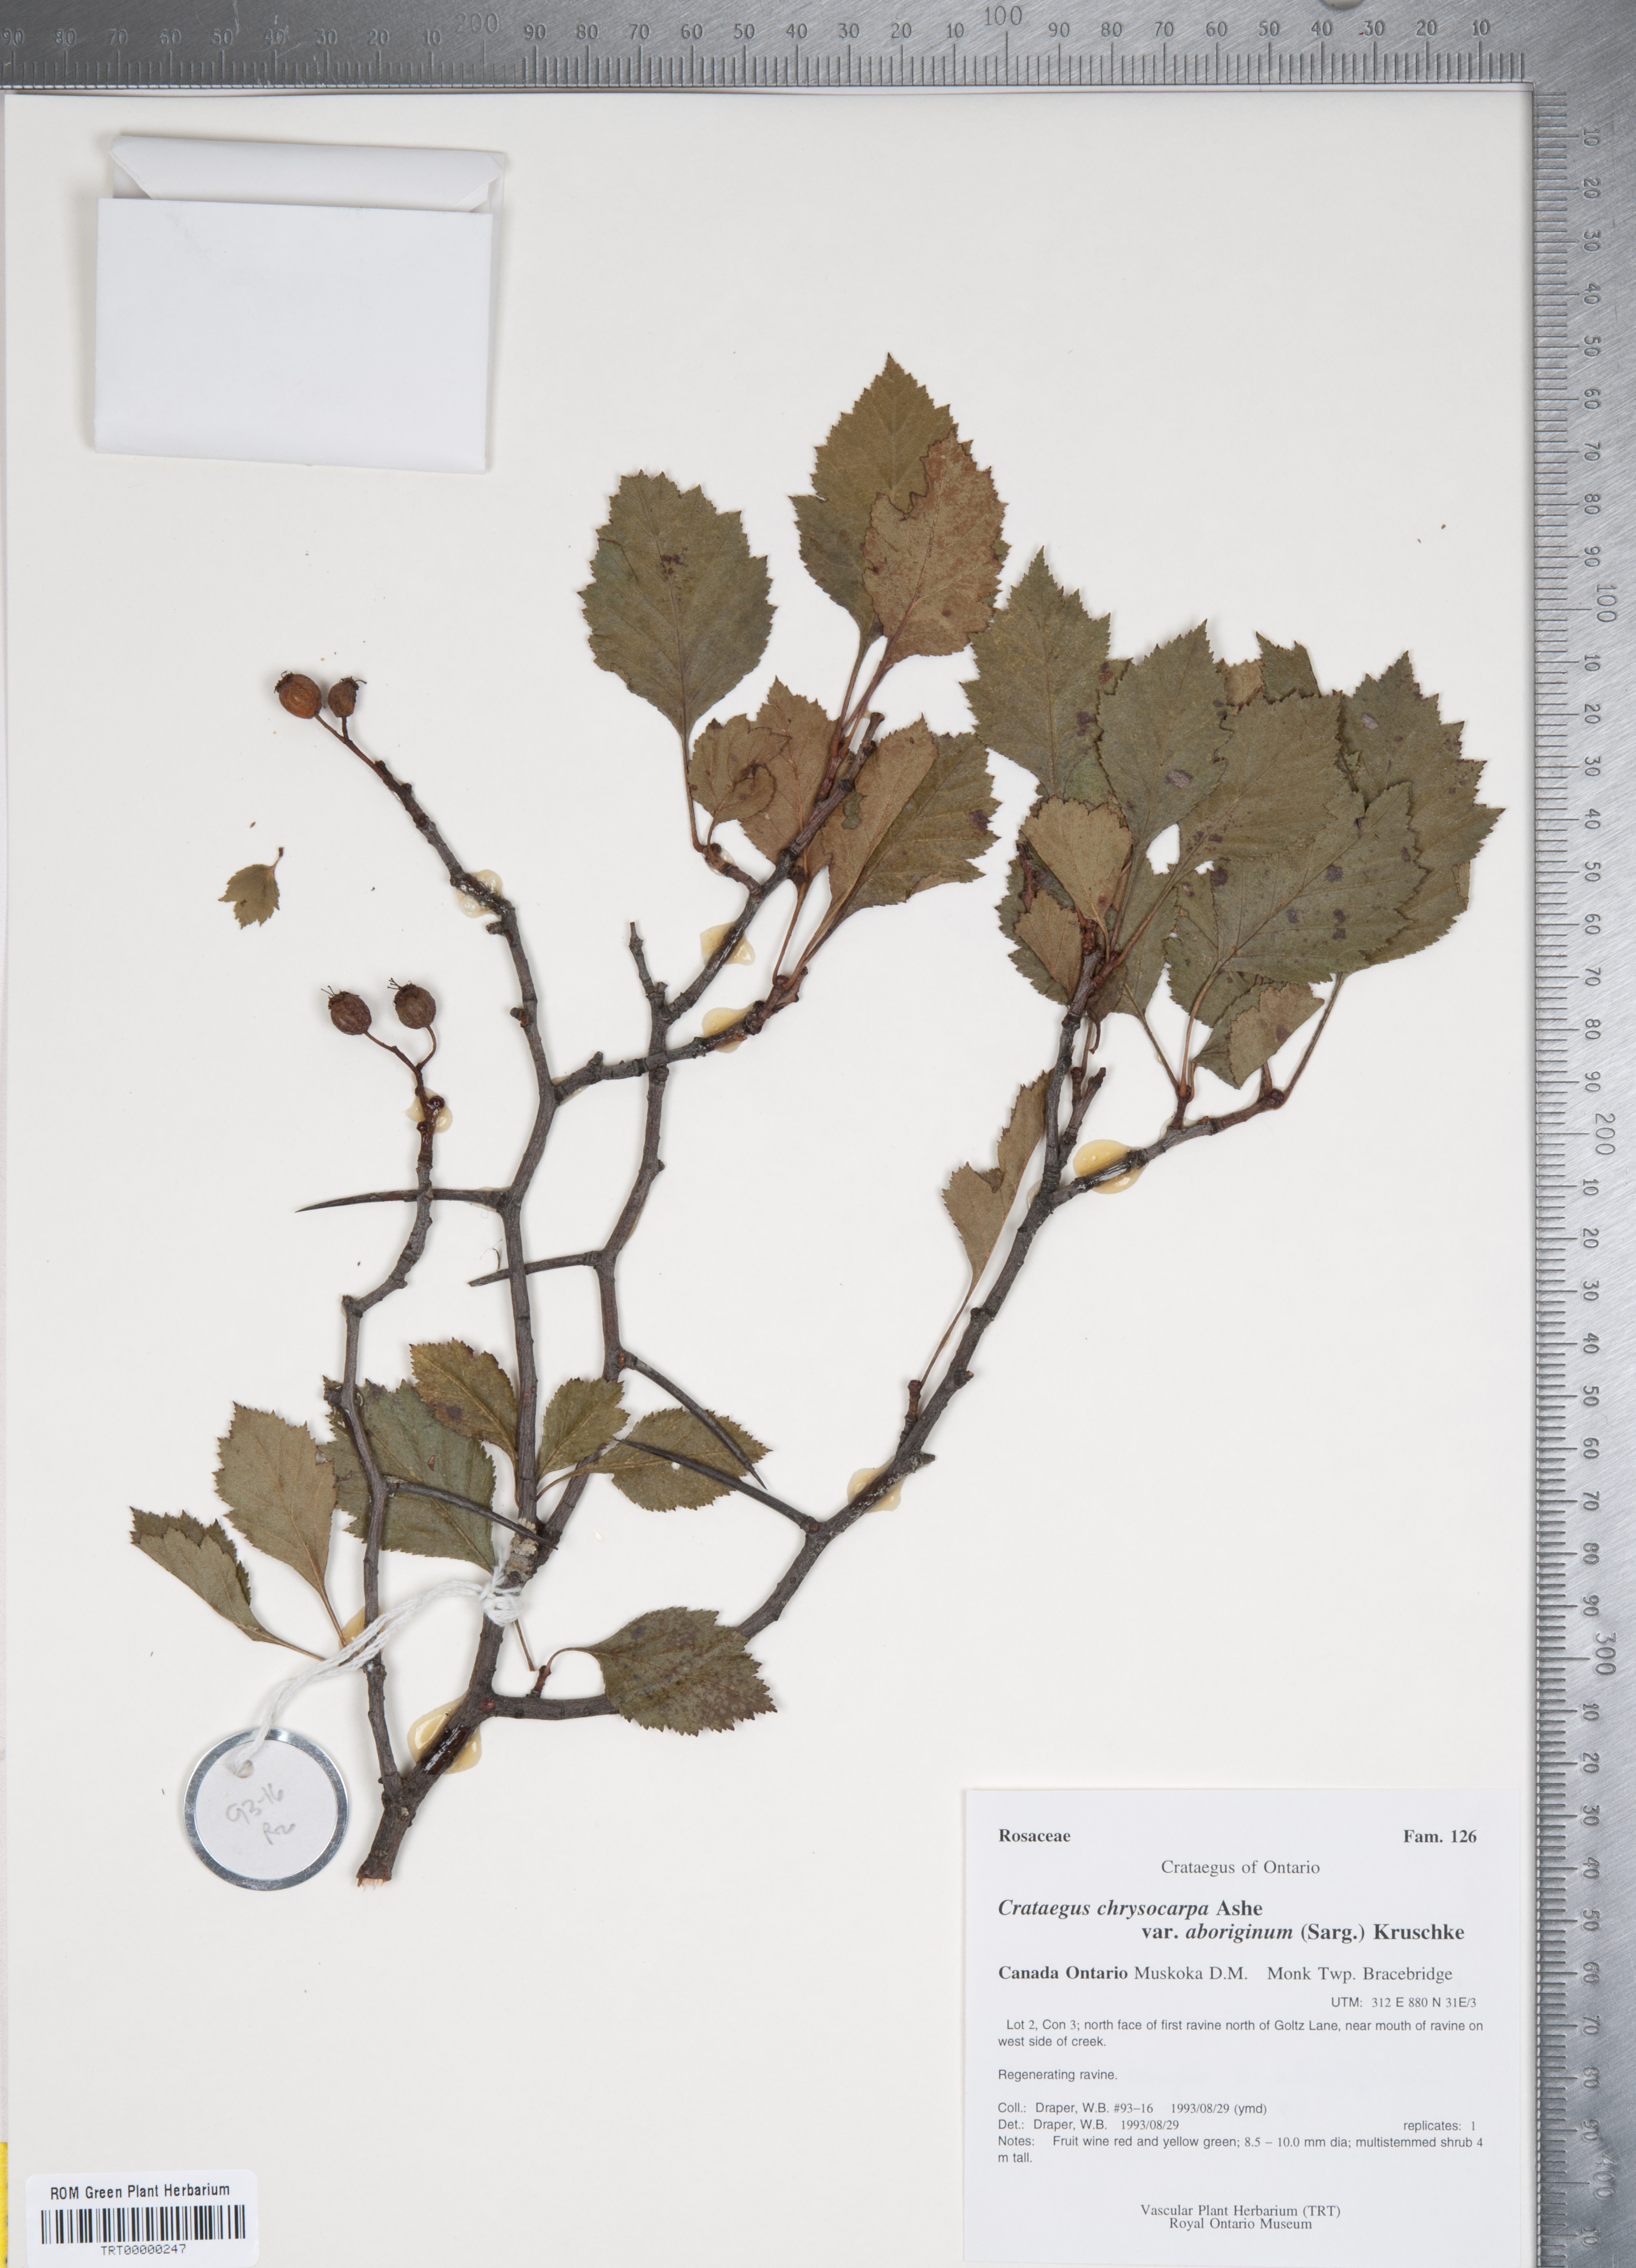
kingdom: Plantae
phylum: Tracheophyta
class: Magnoliopsida
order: Rosales
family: Rosaceae
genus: Crataegus
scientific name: Crataegus chrysocarpa
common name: Fire-berry hawthorn
